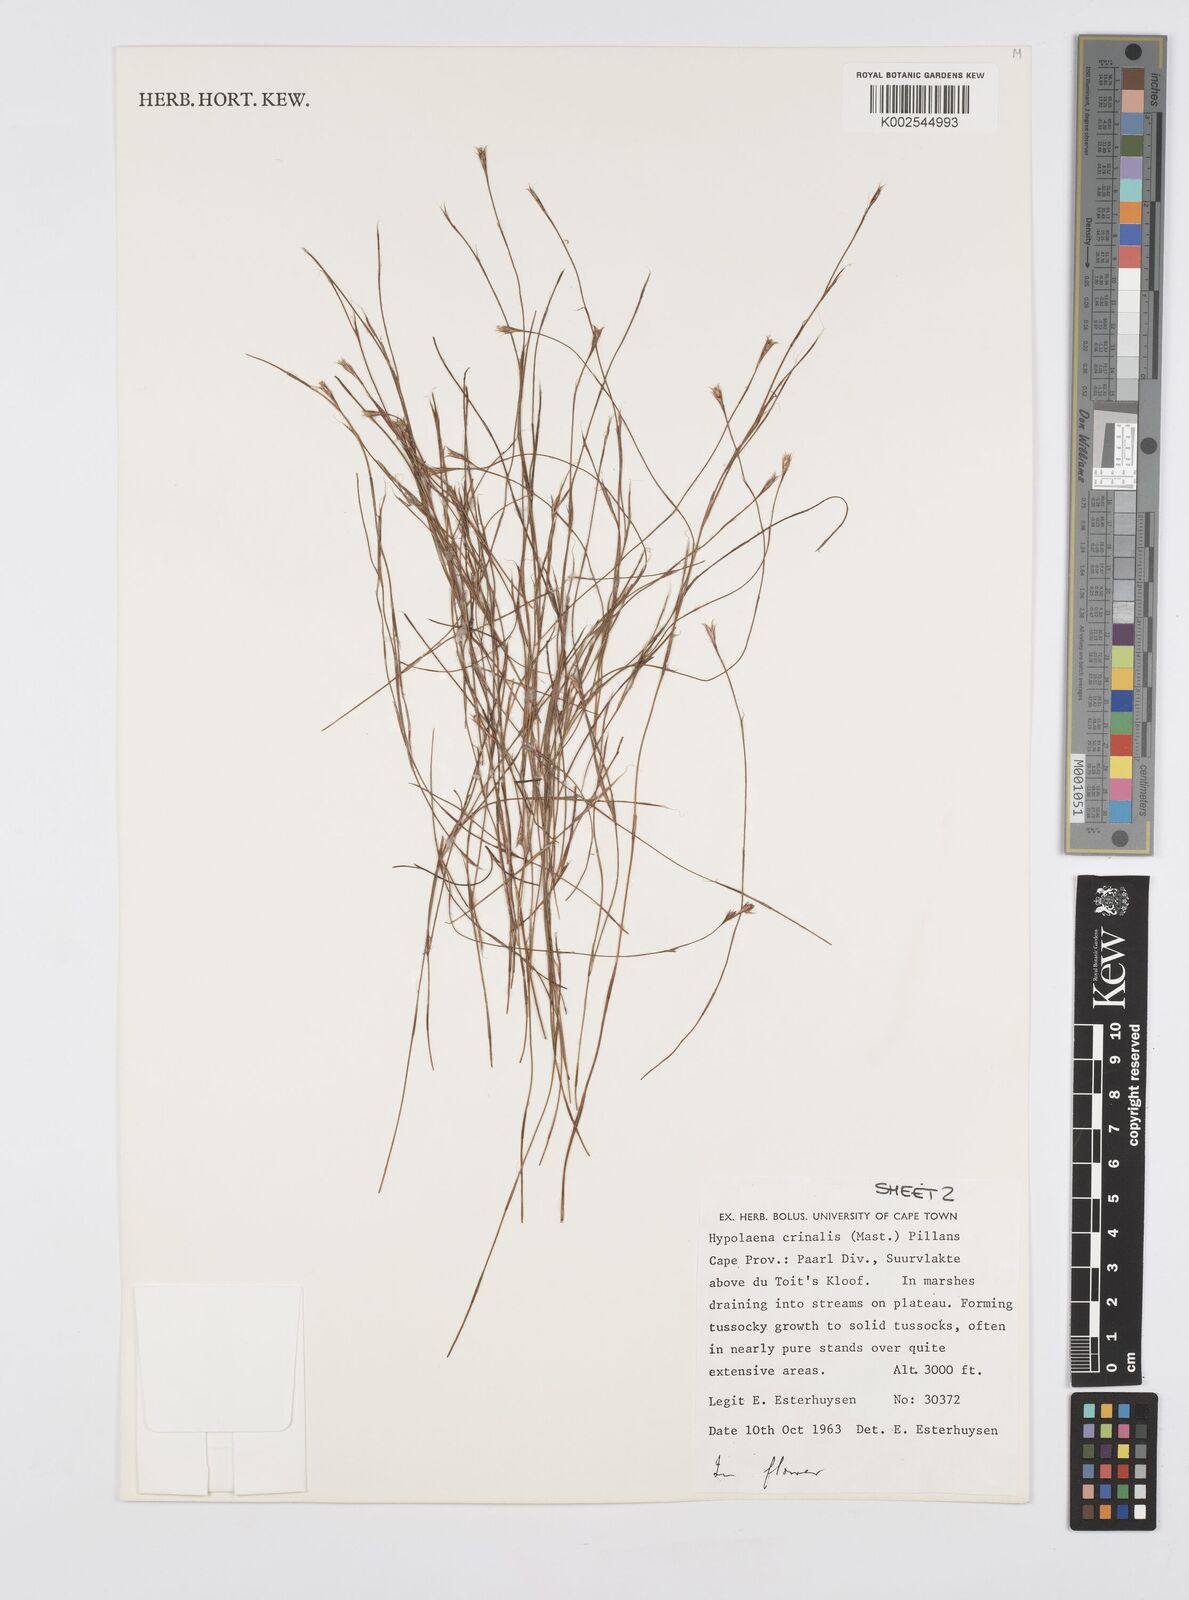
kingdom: Plantae
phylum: Tracheophyta
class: Liliopsida
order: Poales
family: Restionaceae
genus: Anthochortus
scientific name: Anthochortus crinalis
